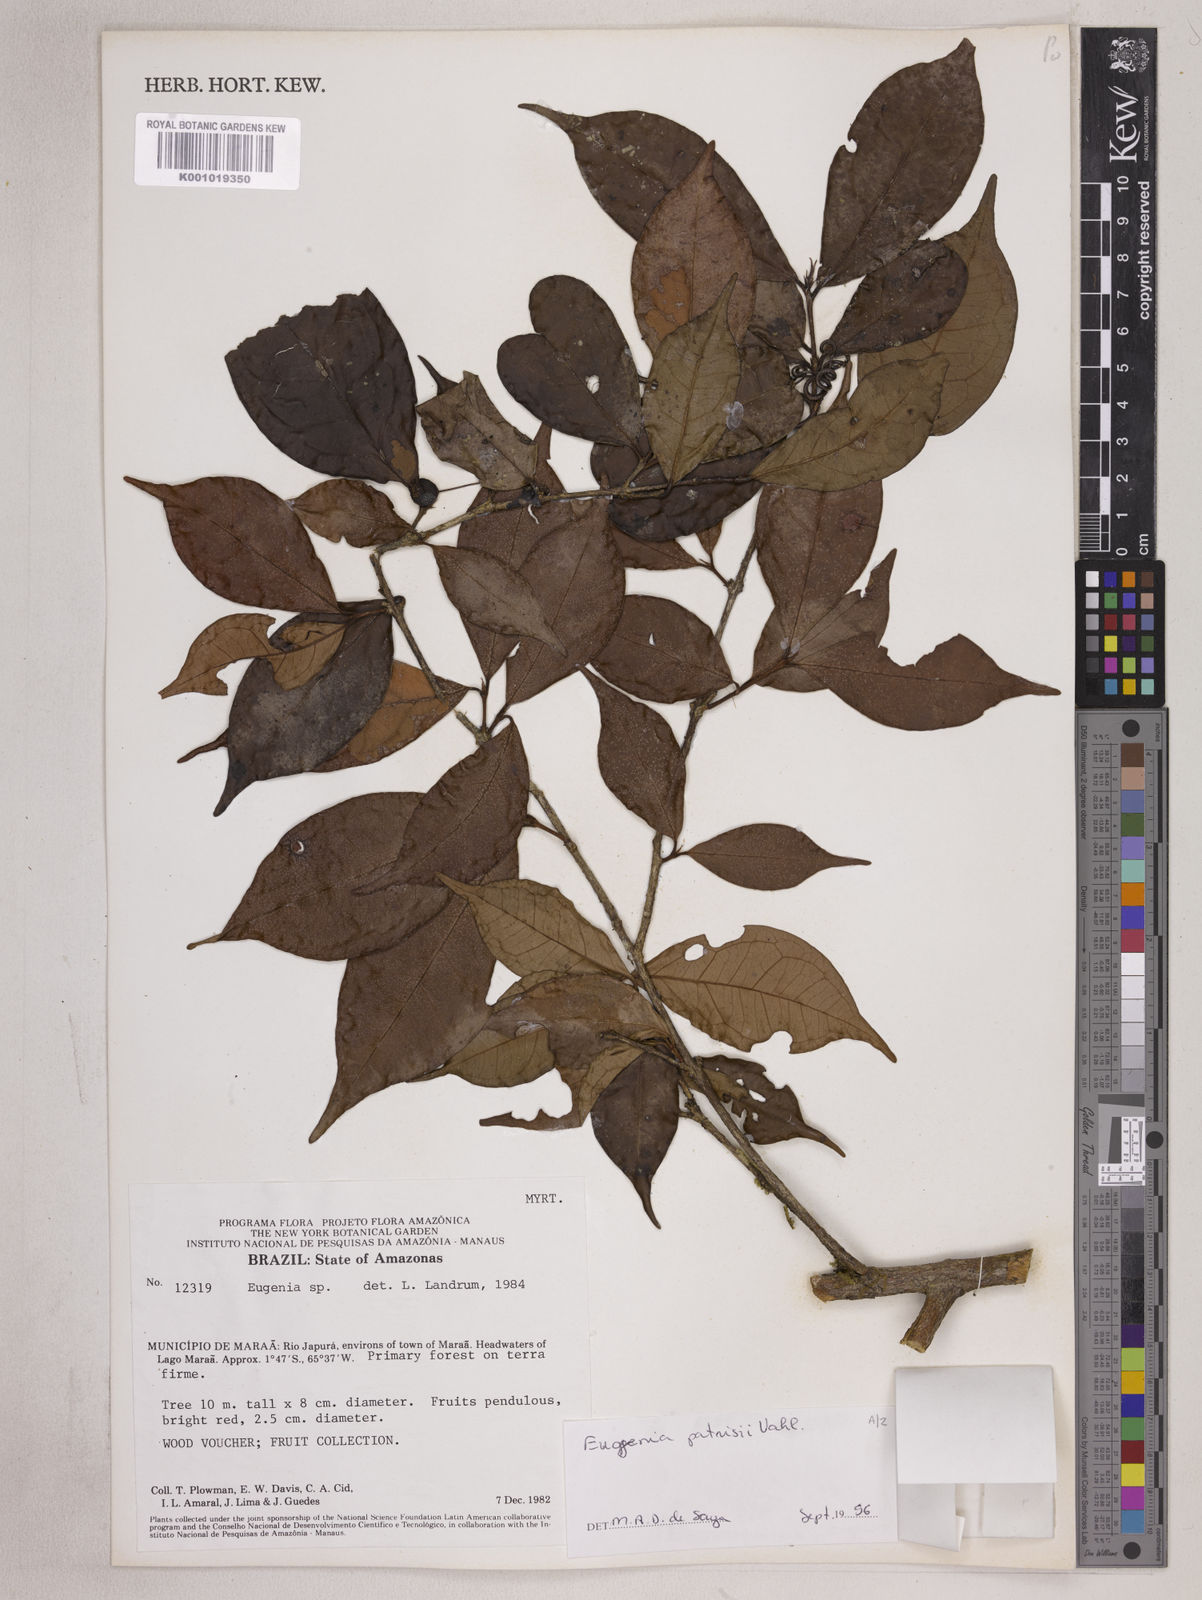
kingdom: Plantae
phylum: Tracheophyta
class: Magnoliopsida
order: Myrtales
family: Myrtaceae
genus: Eugenia
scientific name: Eugenia patrisii
